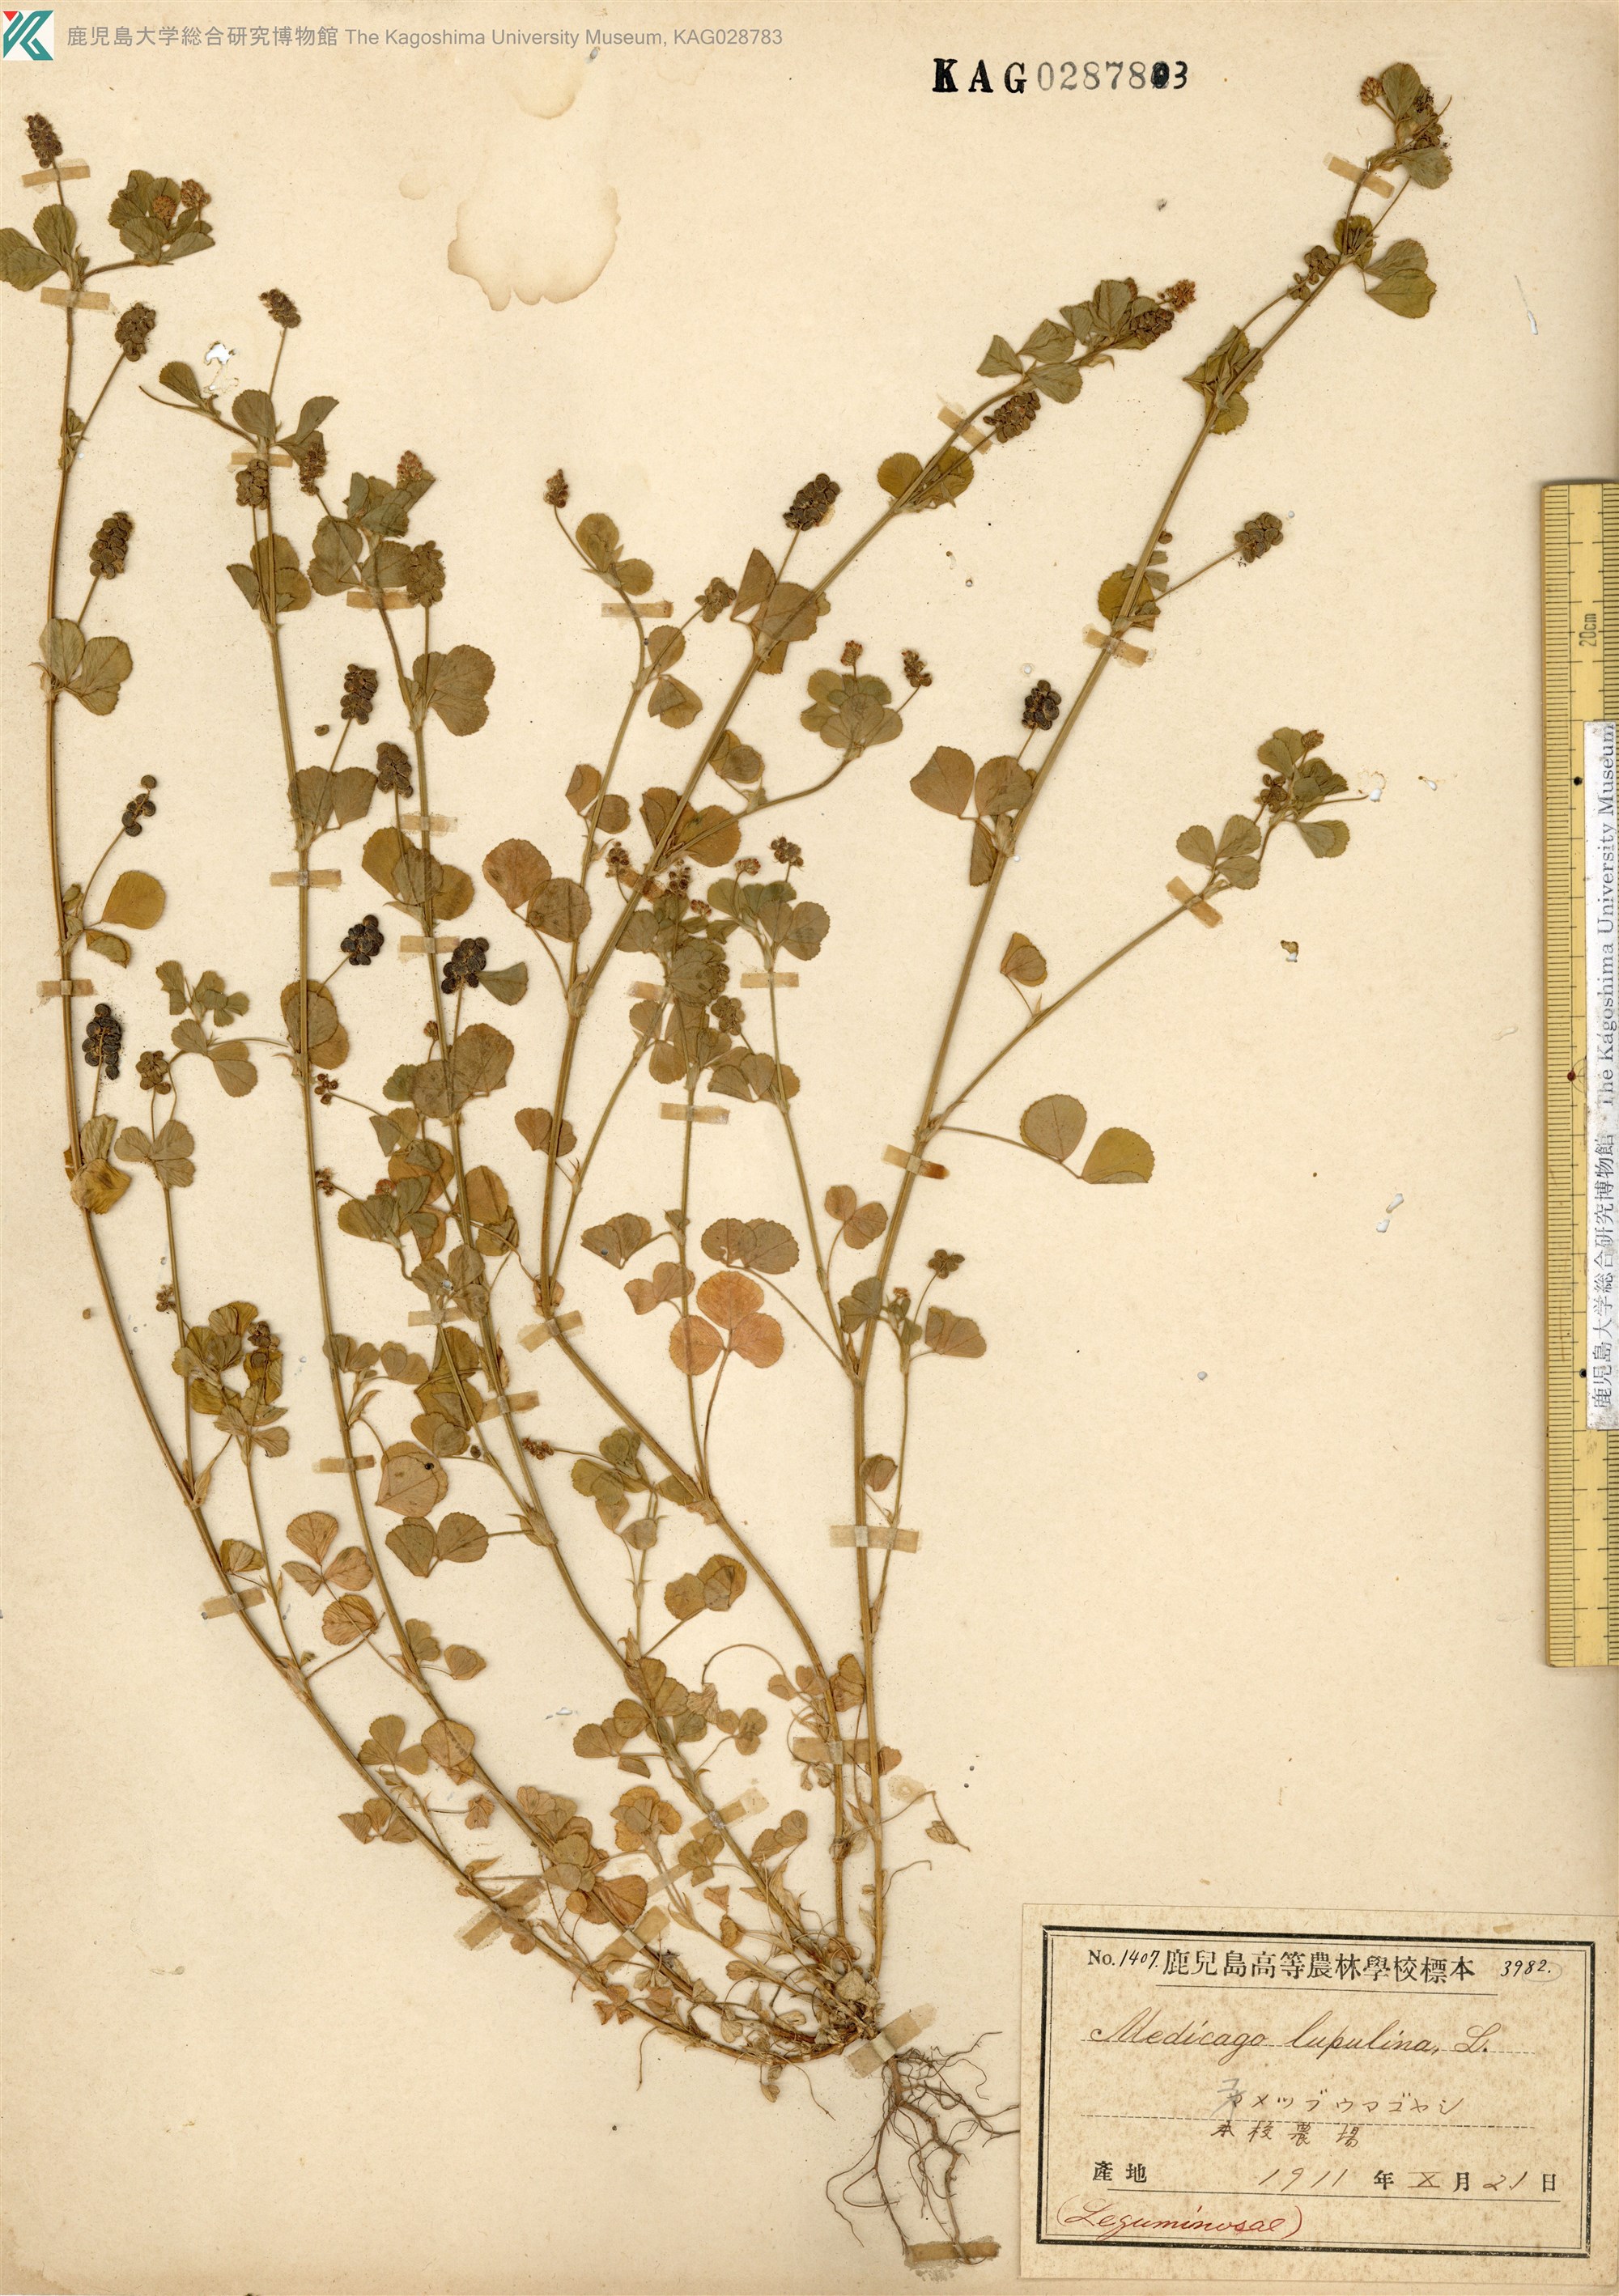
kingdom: Plantae
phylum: Tracheophyta
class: Magnoliopsida
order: Fabales
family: Fabaceae
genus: Medicago
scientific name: Medicago lupulina
